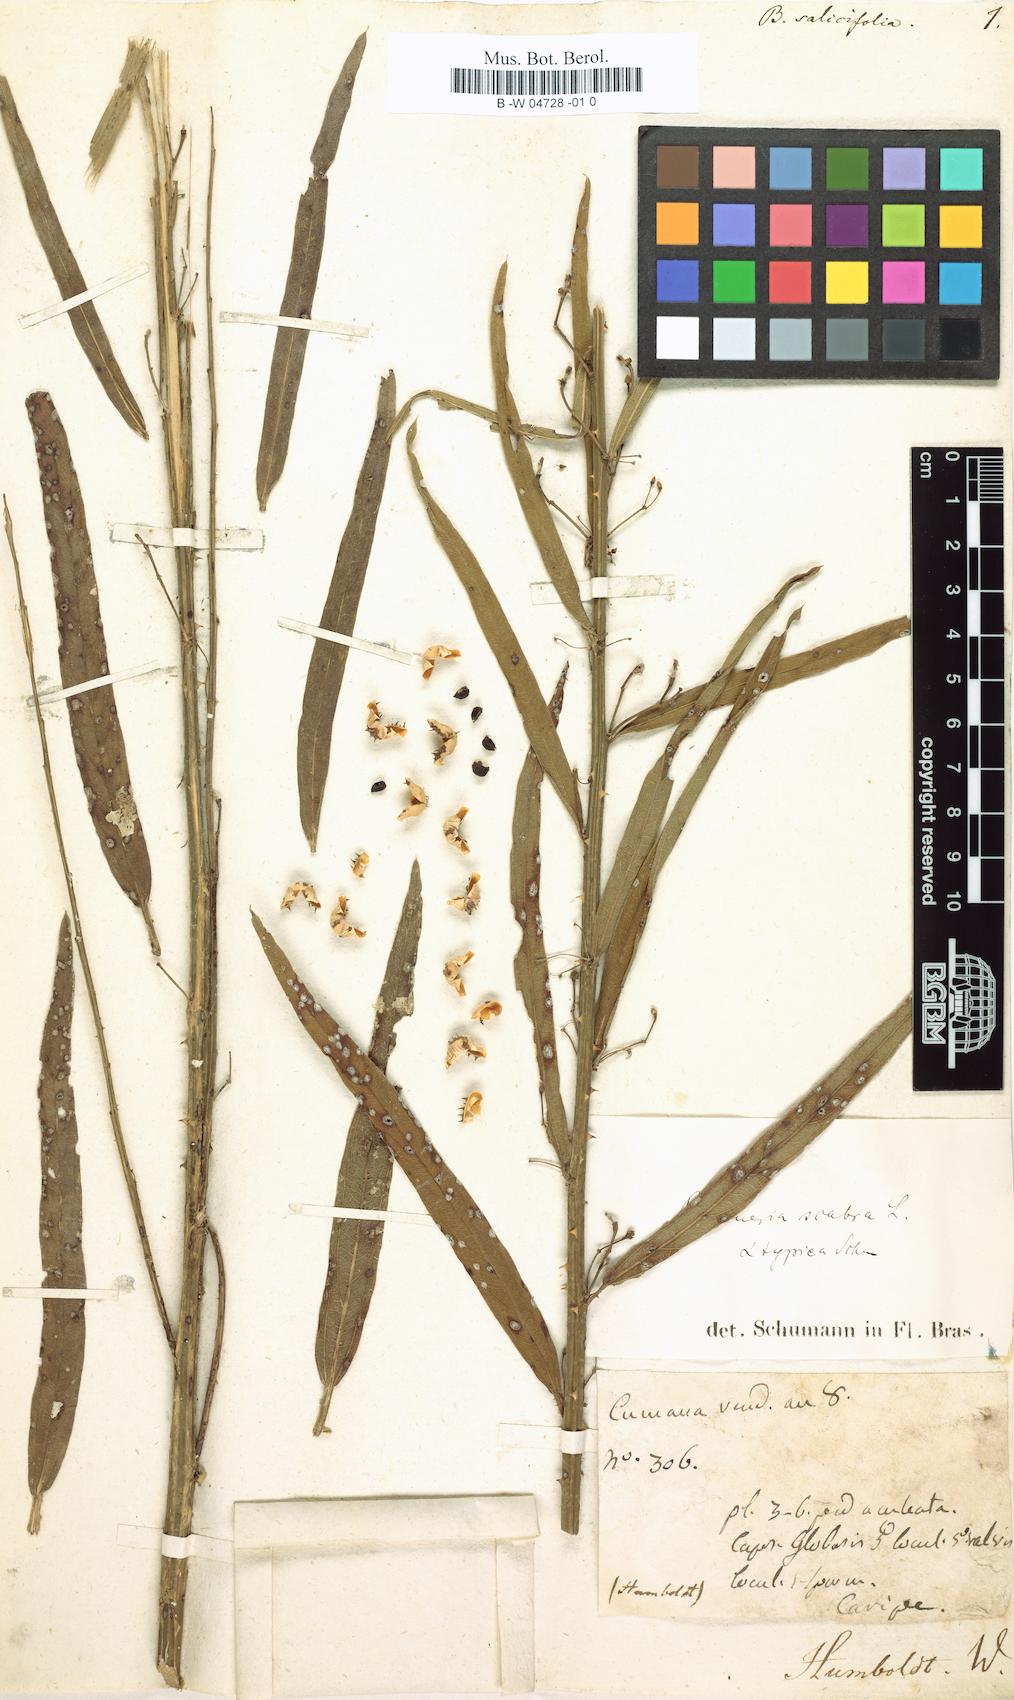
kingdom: Plantae
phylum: Tracheophyta
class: Magnoliopsida
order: Malvales
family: Malvaceae
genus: Byttneria
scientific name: Byttneria scabra
